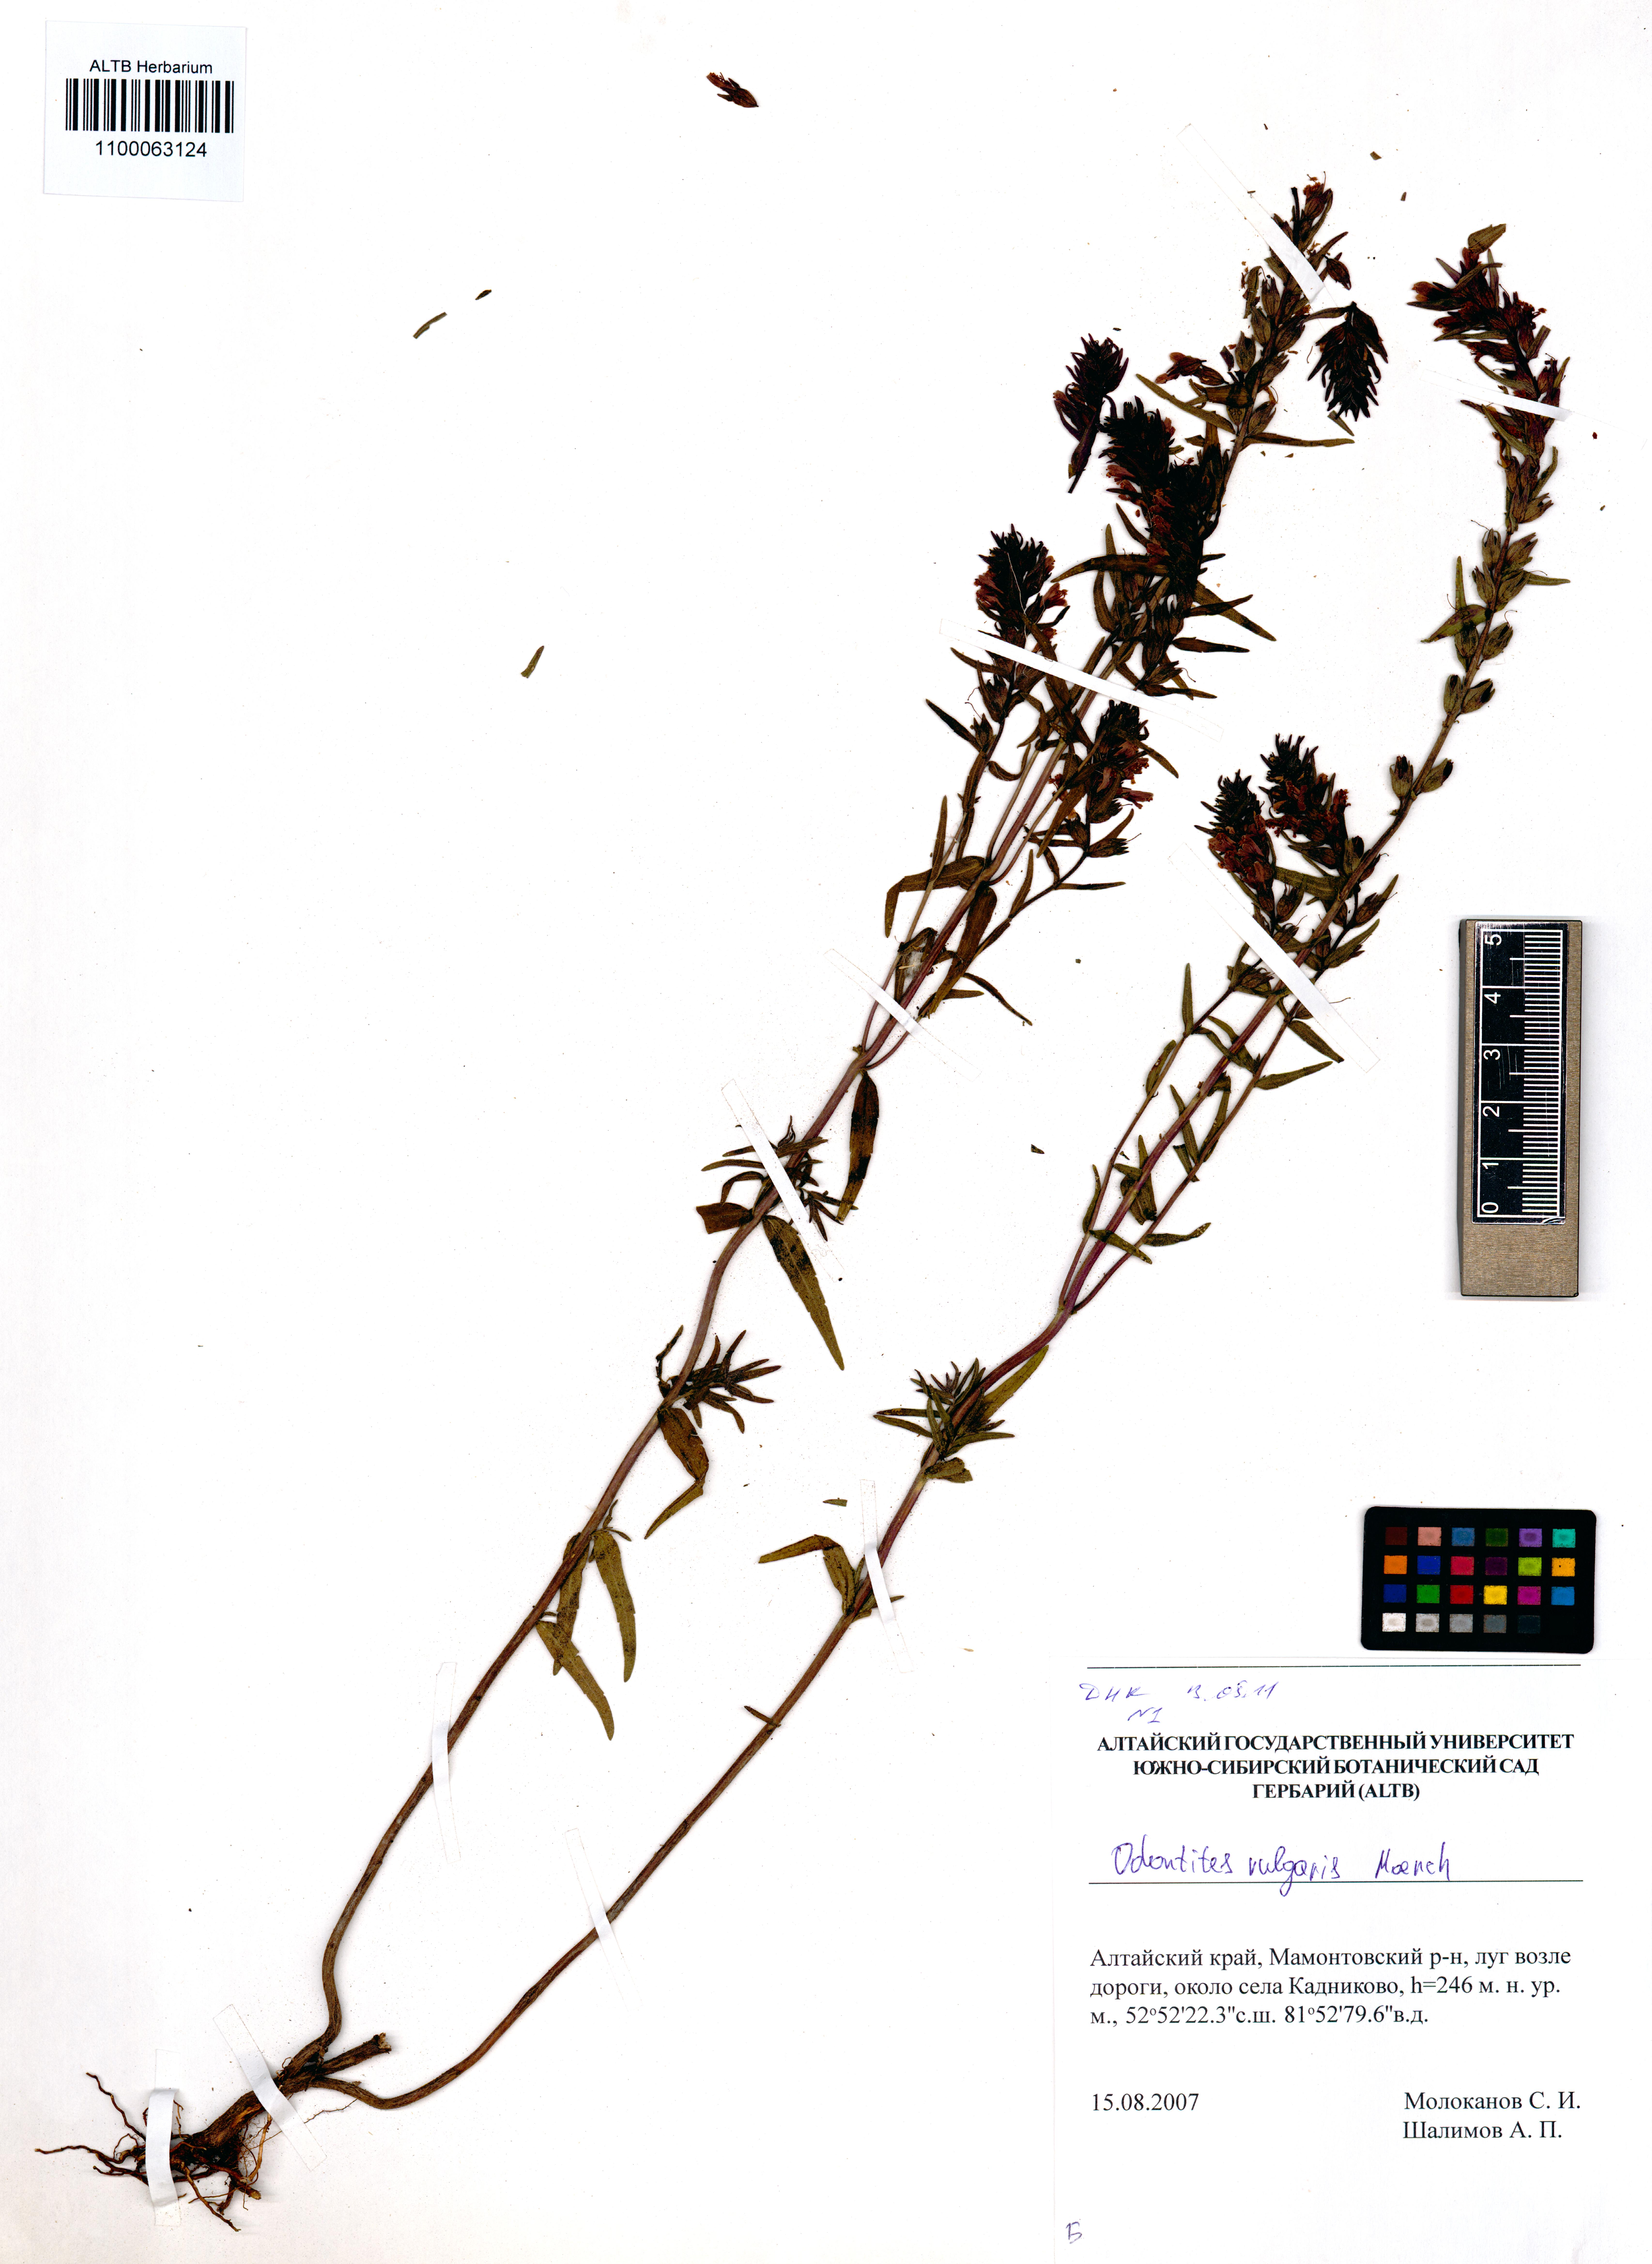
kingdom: Plantae
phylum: Tracheophyta
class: Magnoliopsida
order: Lamiales
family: Orobanchaceae
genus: Odontites
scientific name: Odontites vulgaris
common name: Broomrape
